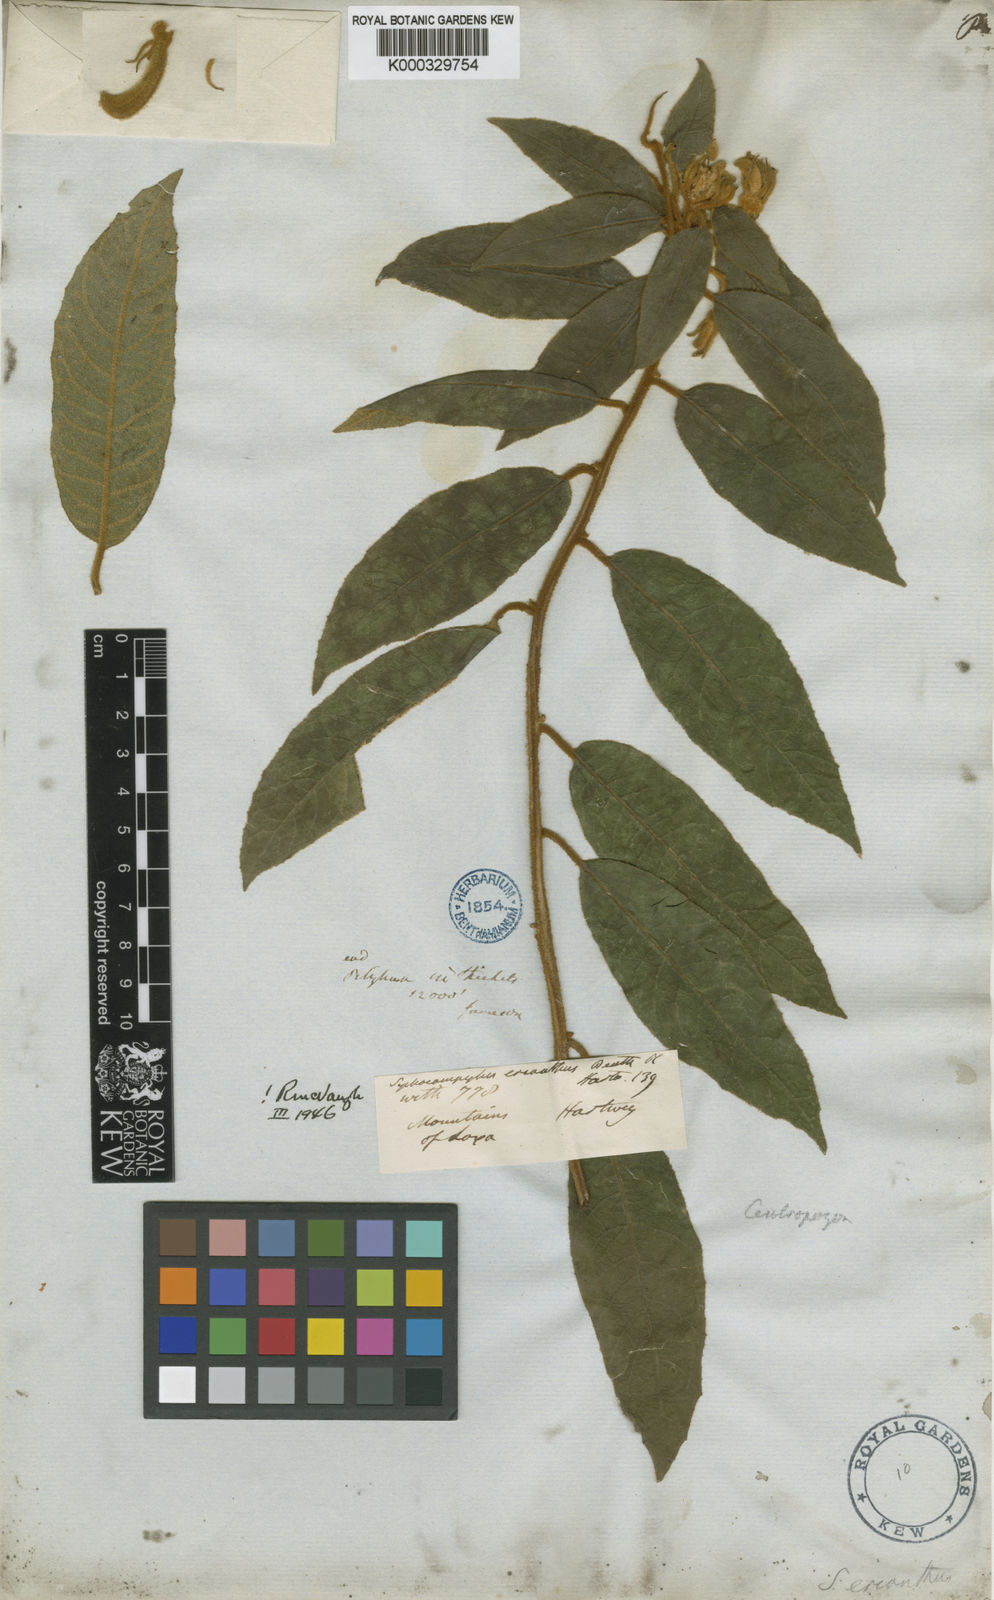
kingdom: Plantae
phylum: Tracheophyta
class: Magnoliopsida
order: Asterales
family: Campanulaceae
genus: Centropogon
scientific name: Centropogon erianthus
